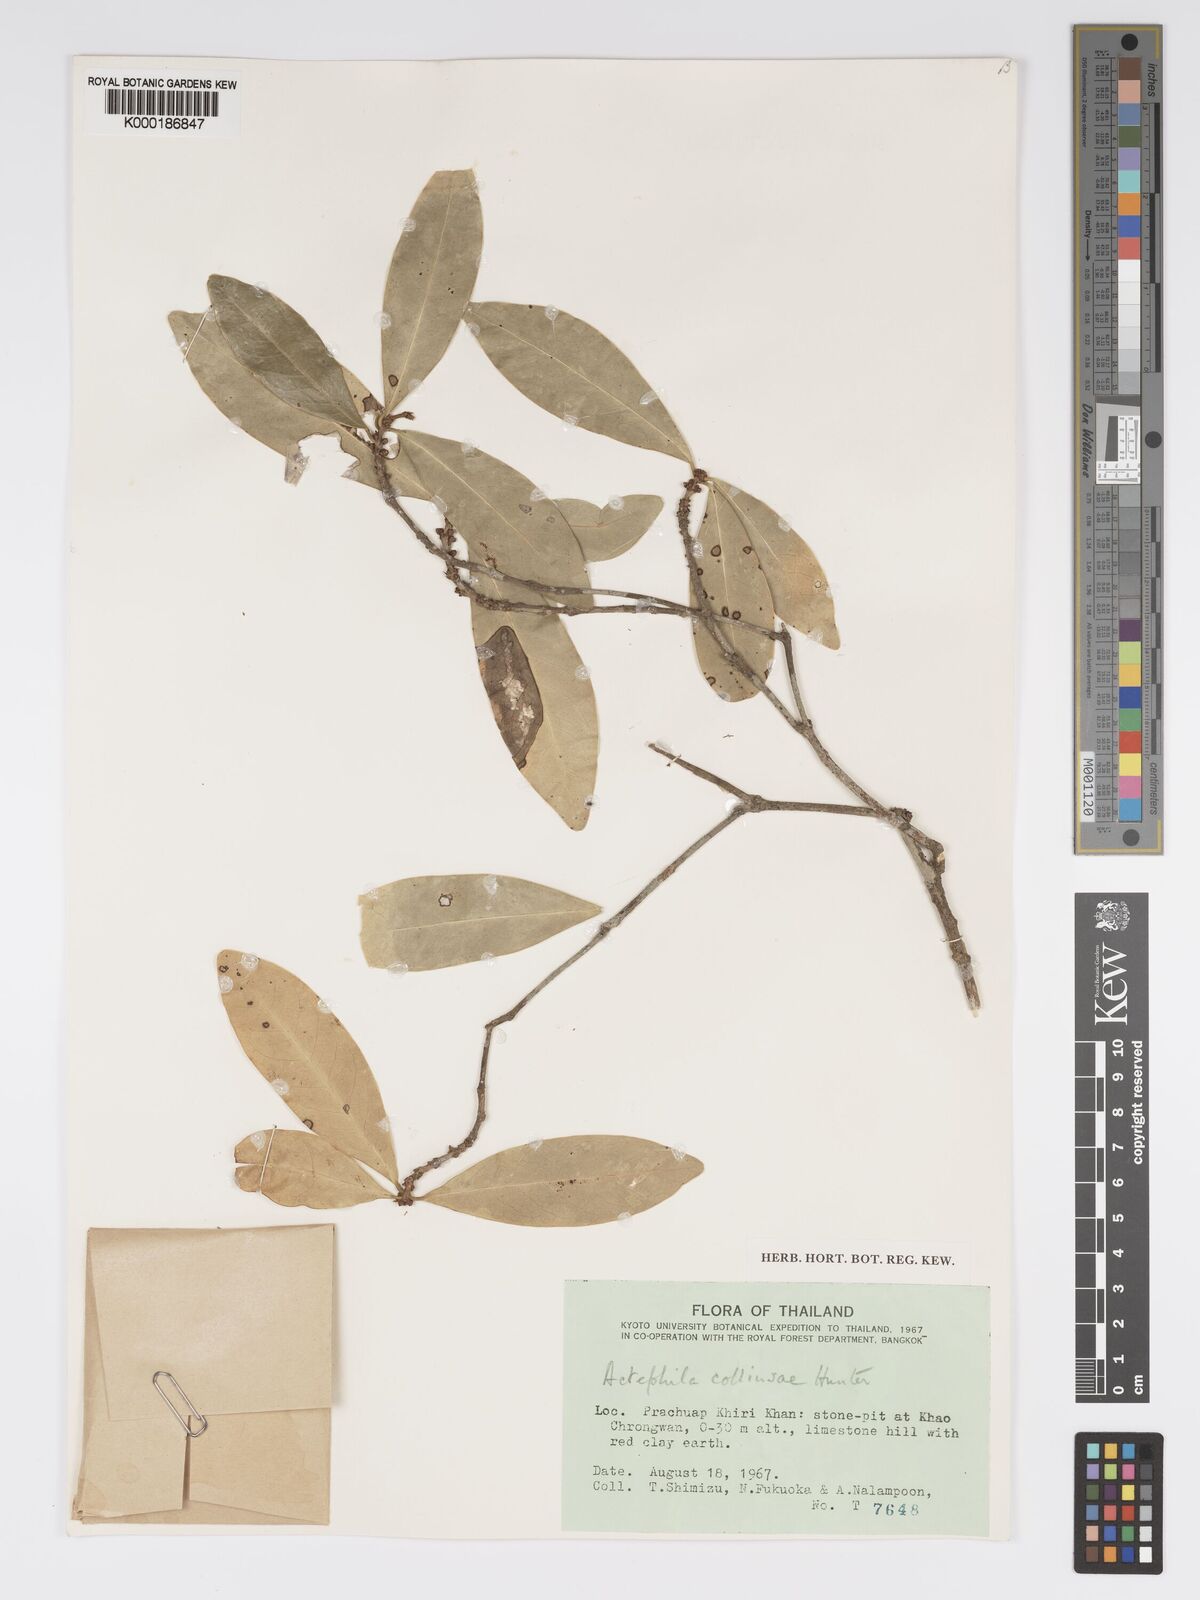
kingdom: Plantae
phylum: Tracheophyta
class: Magnoliopsida
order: Malpighiales
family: Phyllanthaceae
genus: Actephila
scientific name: Actephila collinsiae
